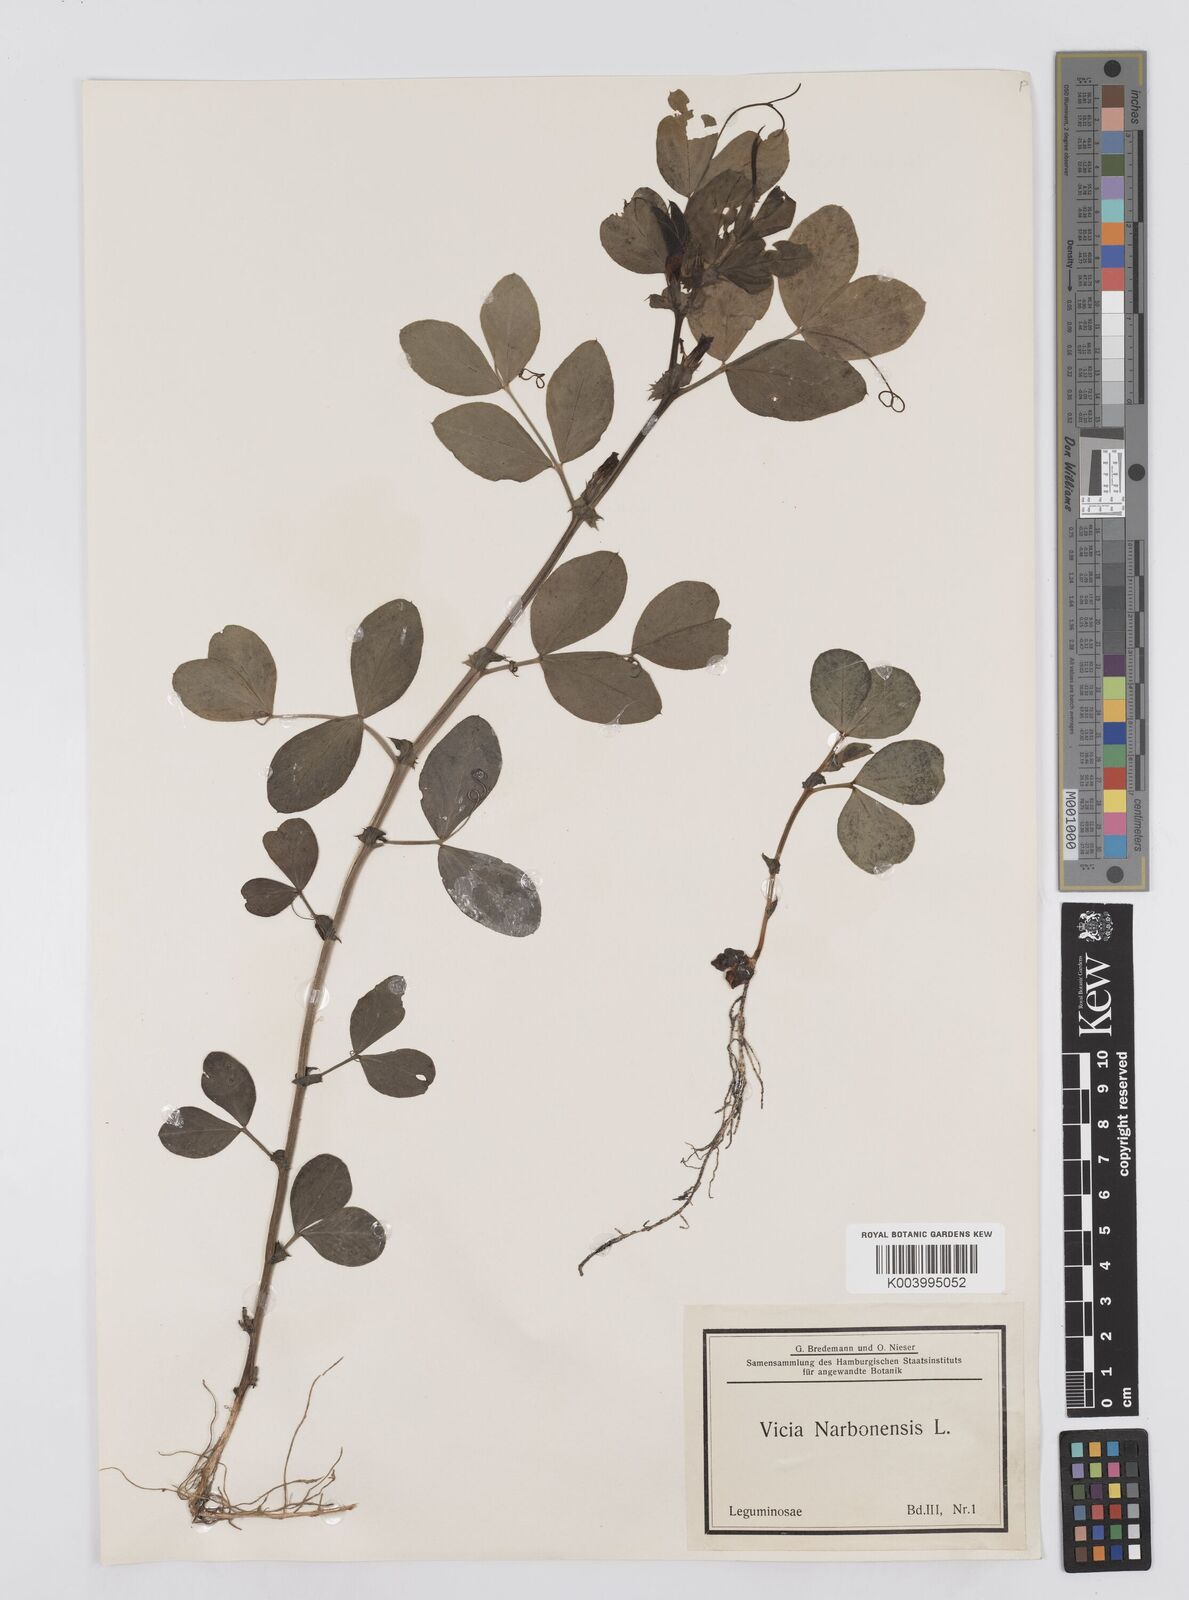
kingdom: Plantae
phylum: Tracheophyta
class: Magnoliopsida
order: Fabales
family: Fabaceae
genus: Vicia
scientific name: Vicia narbonensis
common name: Narbonne vetch
